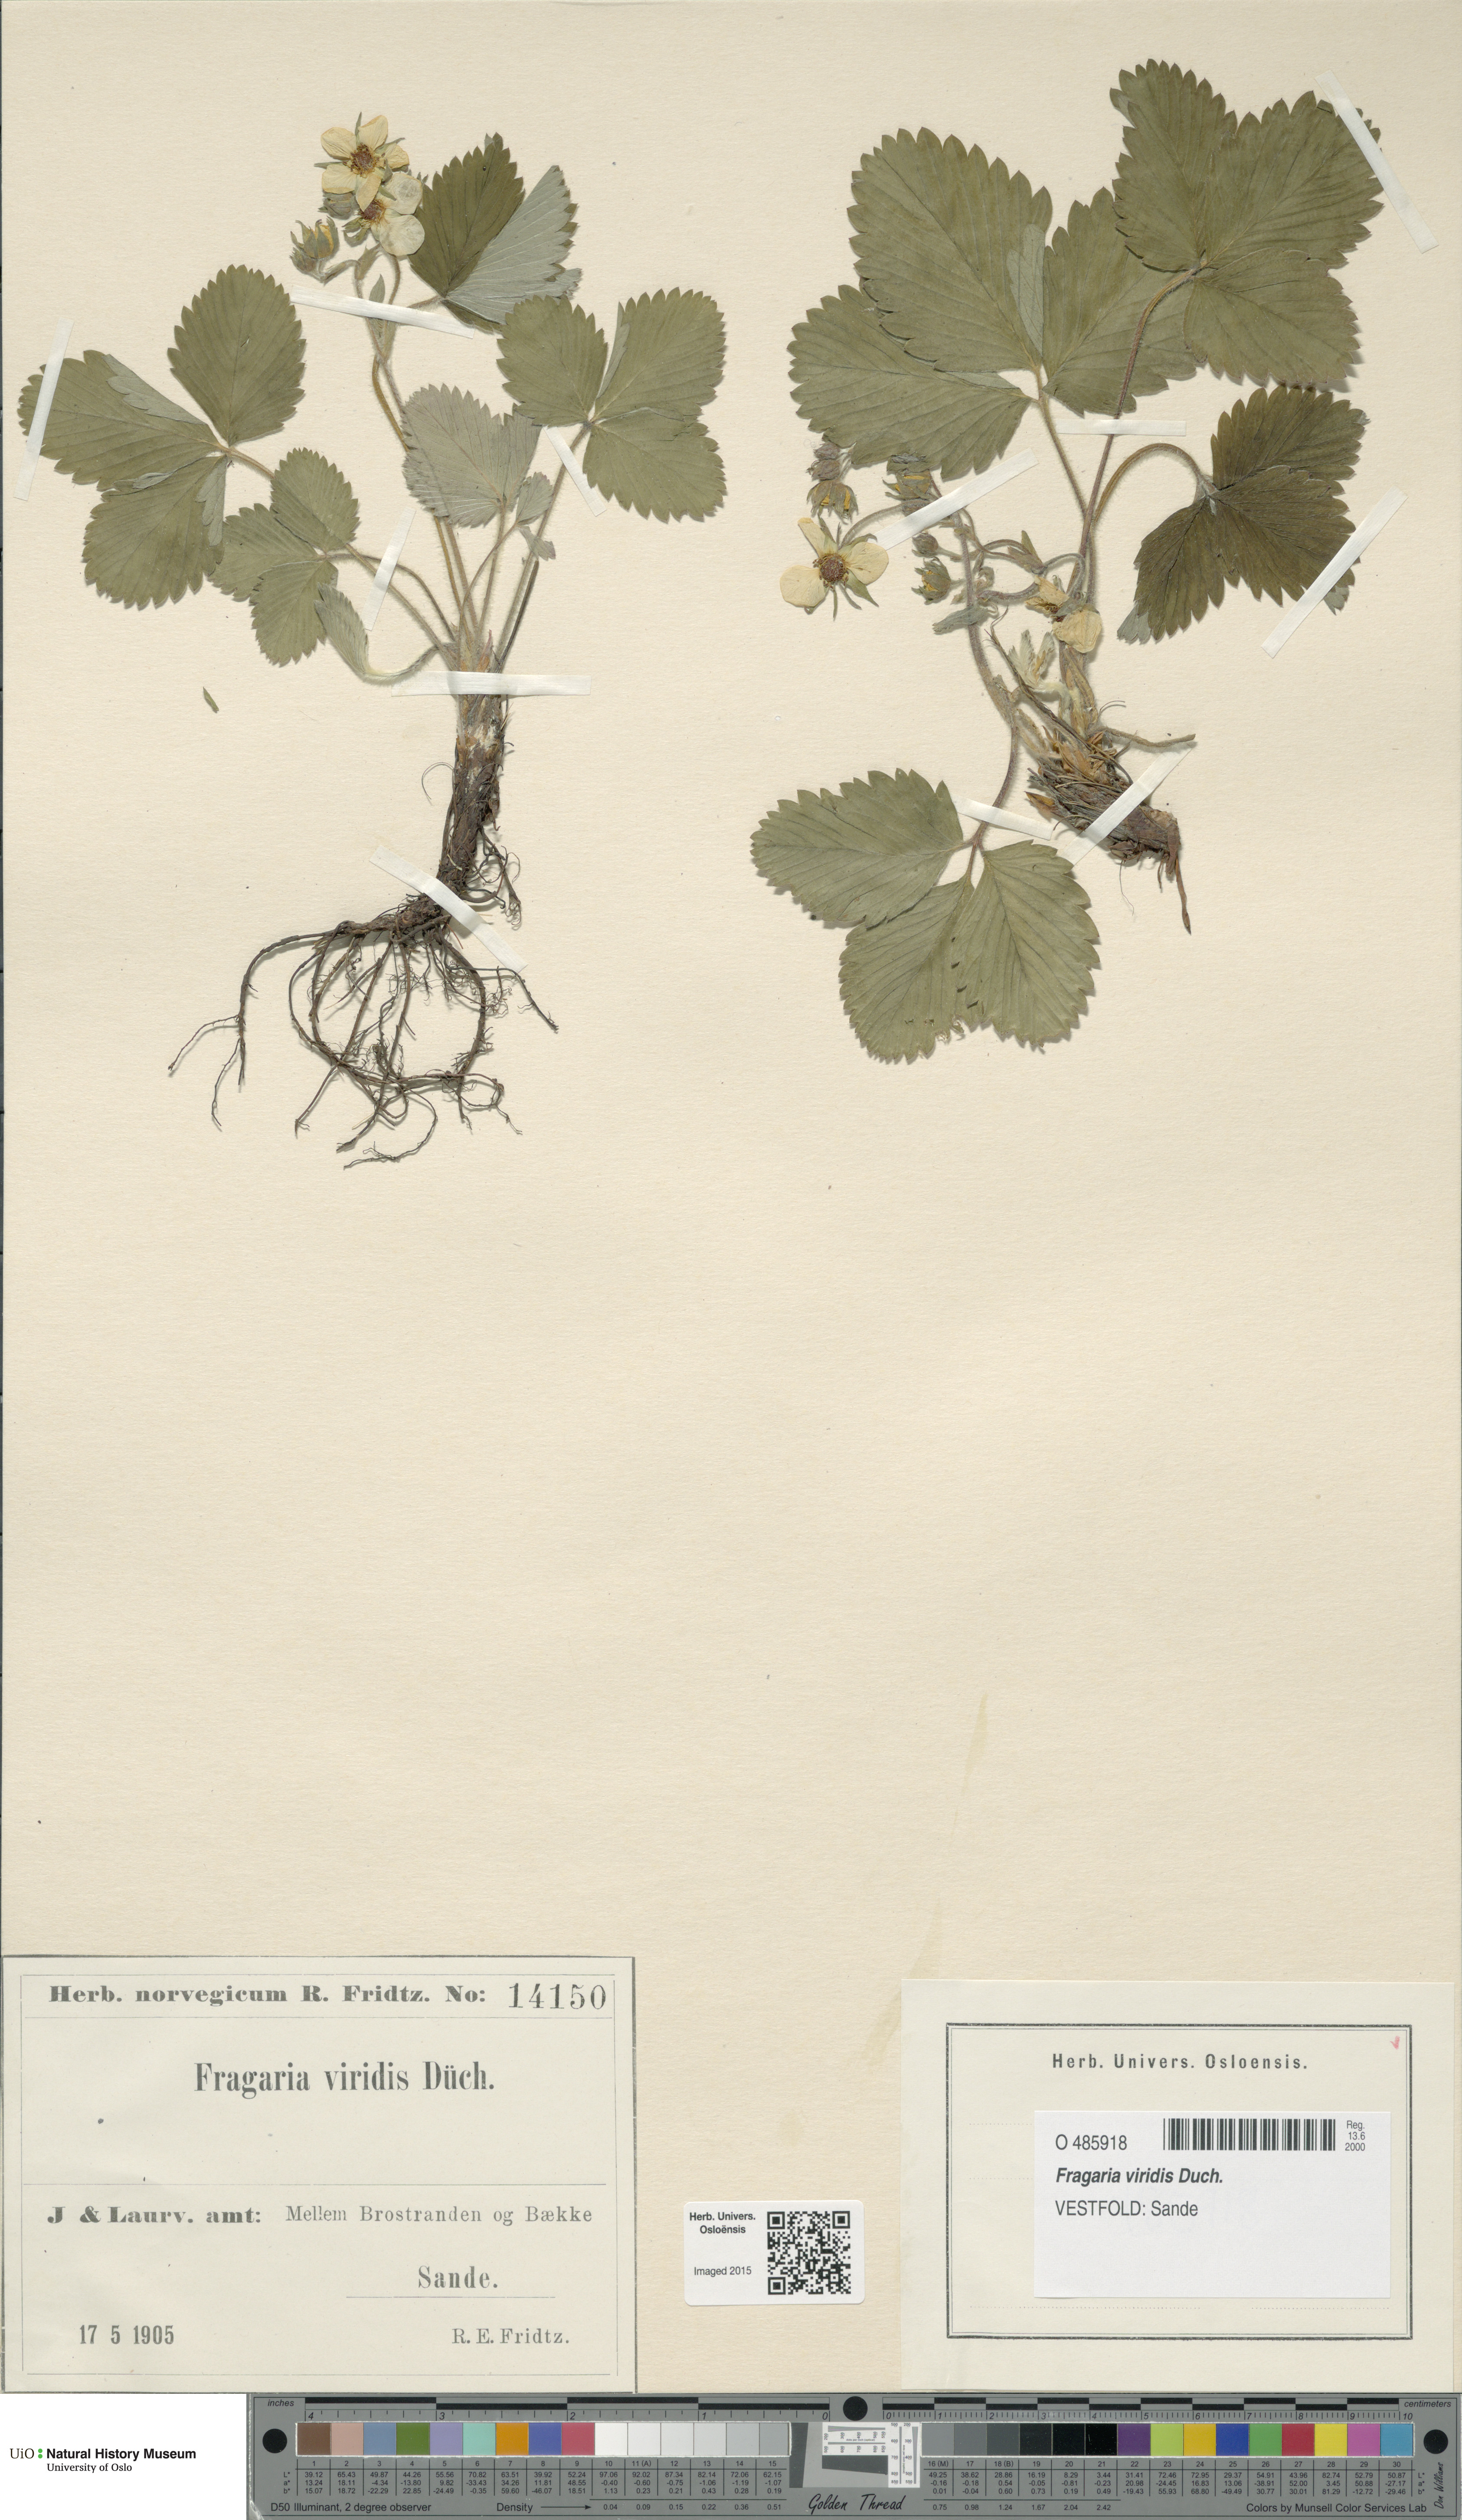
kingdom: Plantae
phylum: Tracheophyta
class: Magnoliopsida
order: Rosales
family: Rosaceae
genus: Fragaria
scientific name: Fragaria viridis
